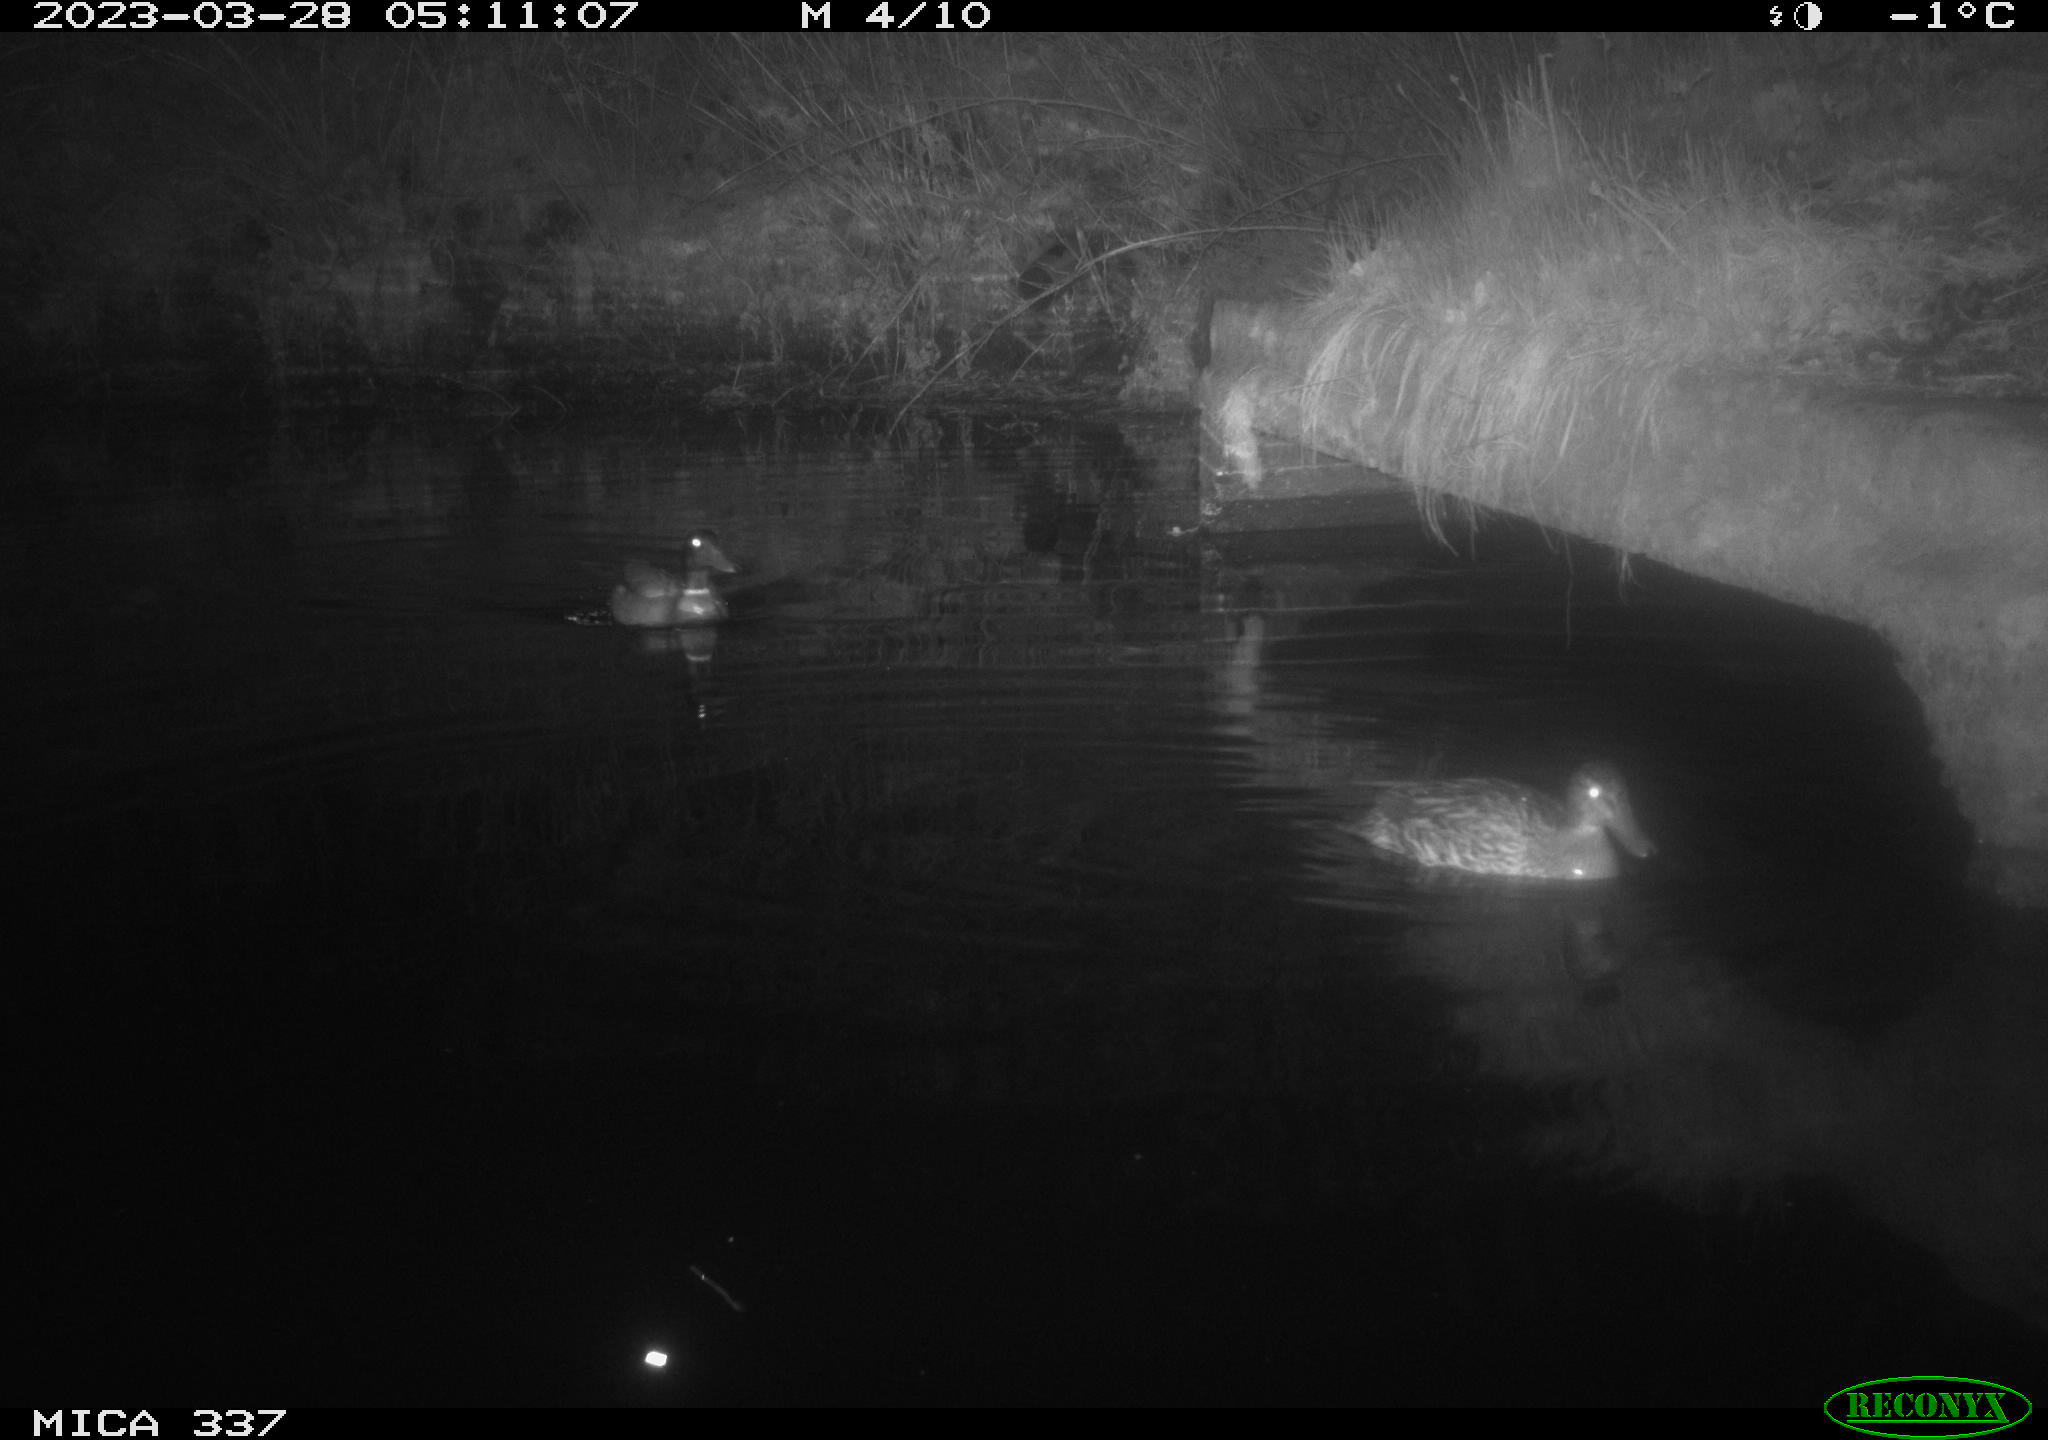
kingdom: Animalia
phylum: Chordata
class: Aves
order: Anseriformes
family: Anatidae
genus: Anas
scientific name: Anas
